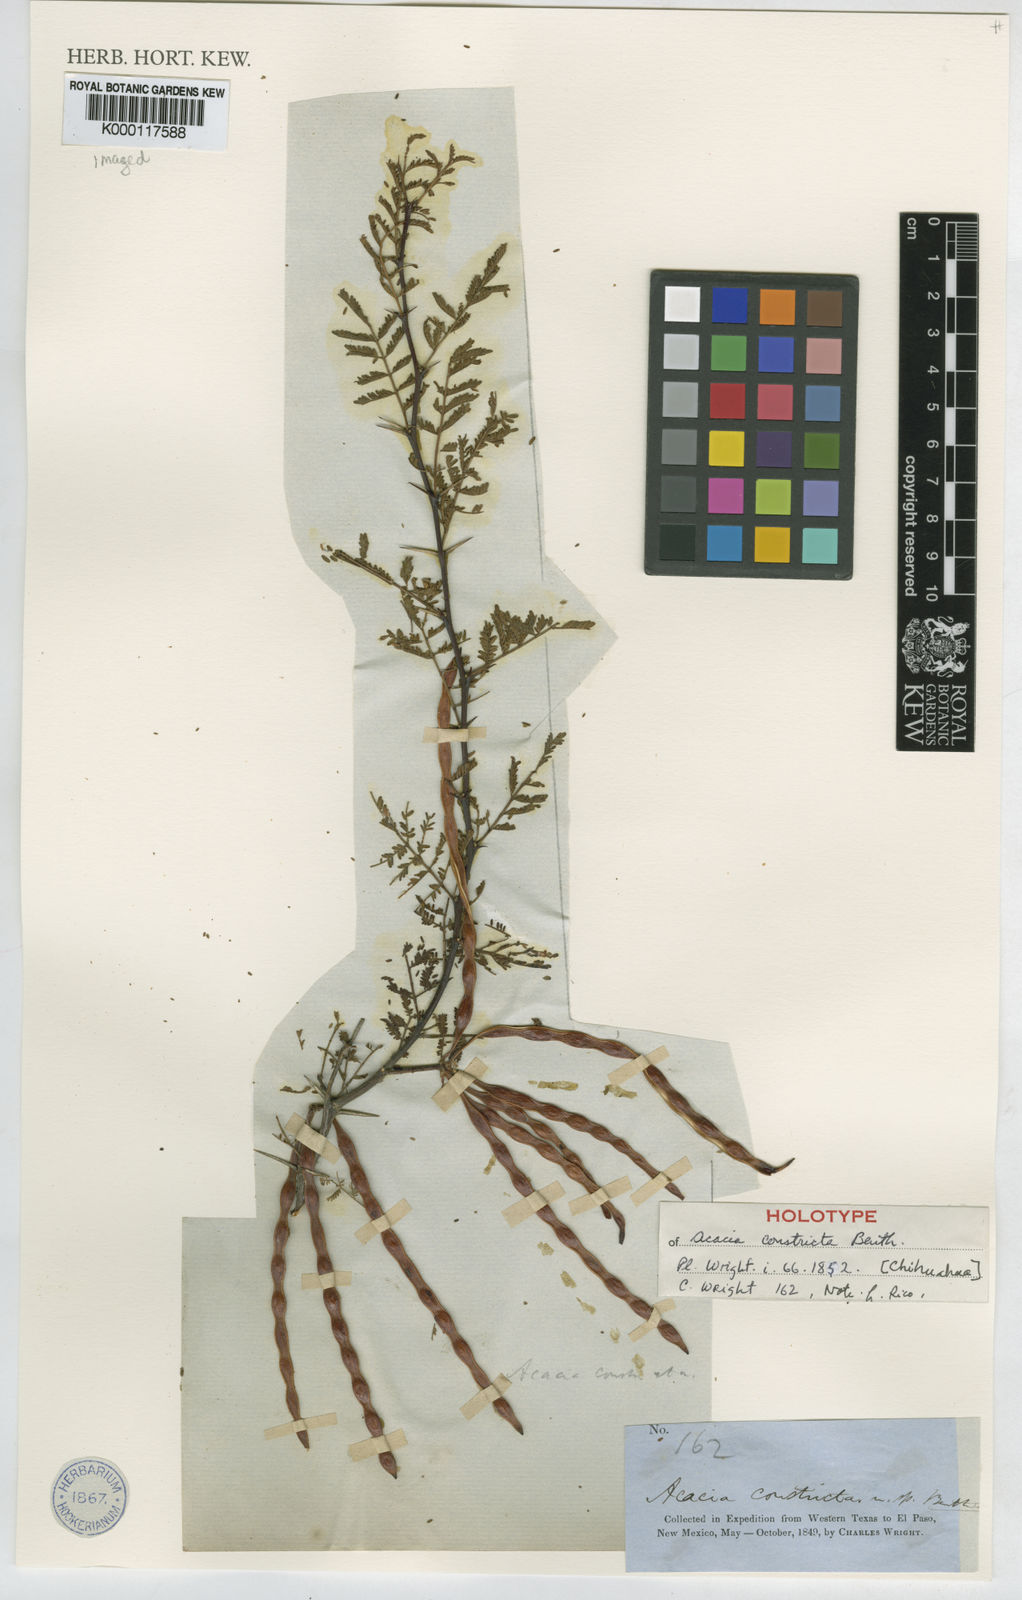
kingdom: Plantae
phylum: Tracheophyta
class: Magnoliopsida
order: Fabales
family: Fabaceae
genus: Acacia
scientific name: Acacia
